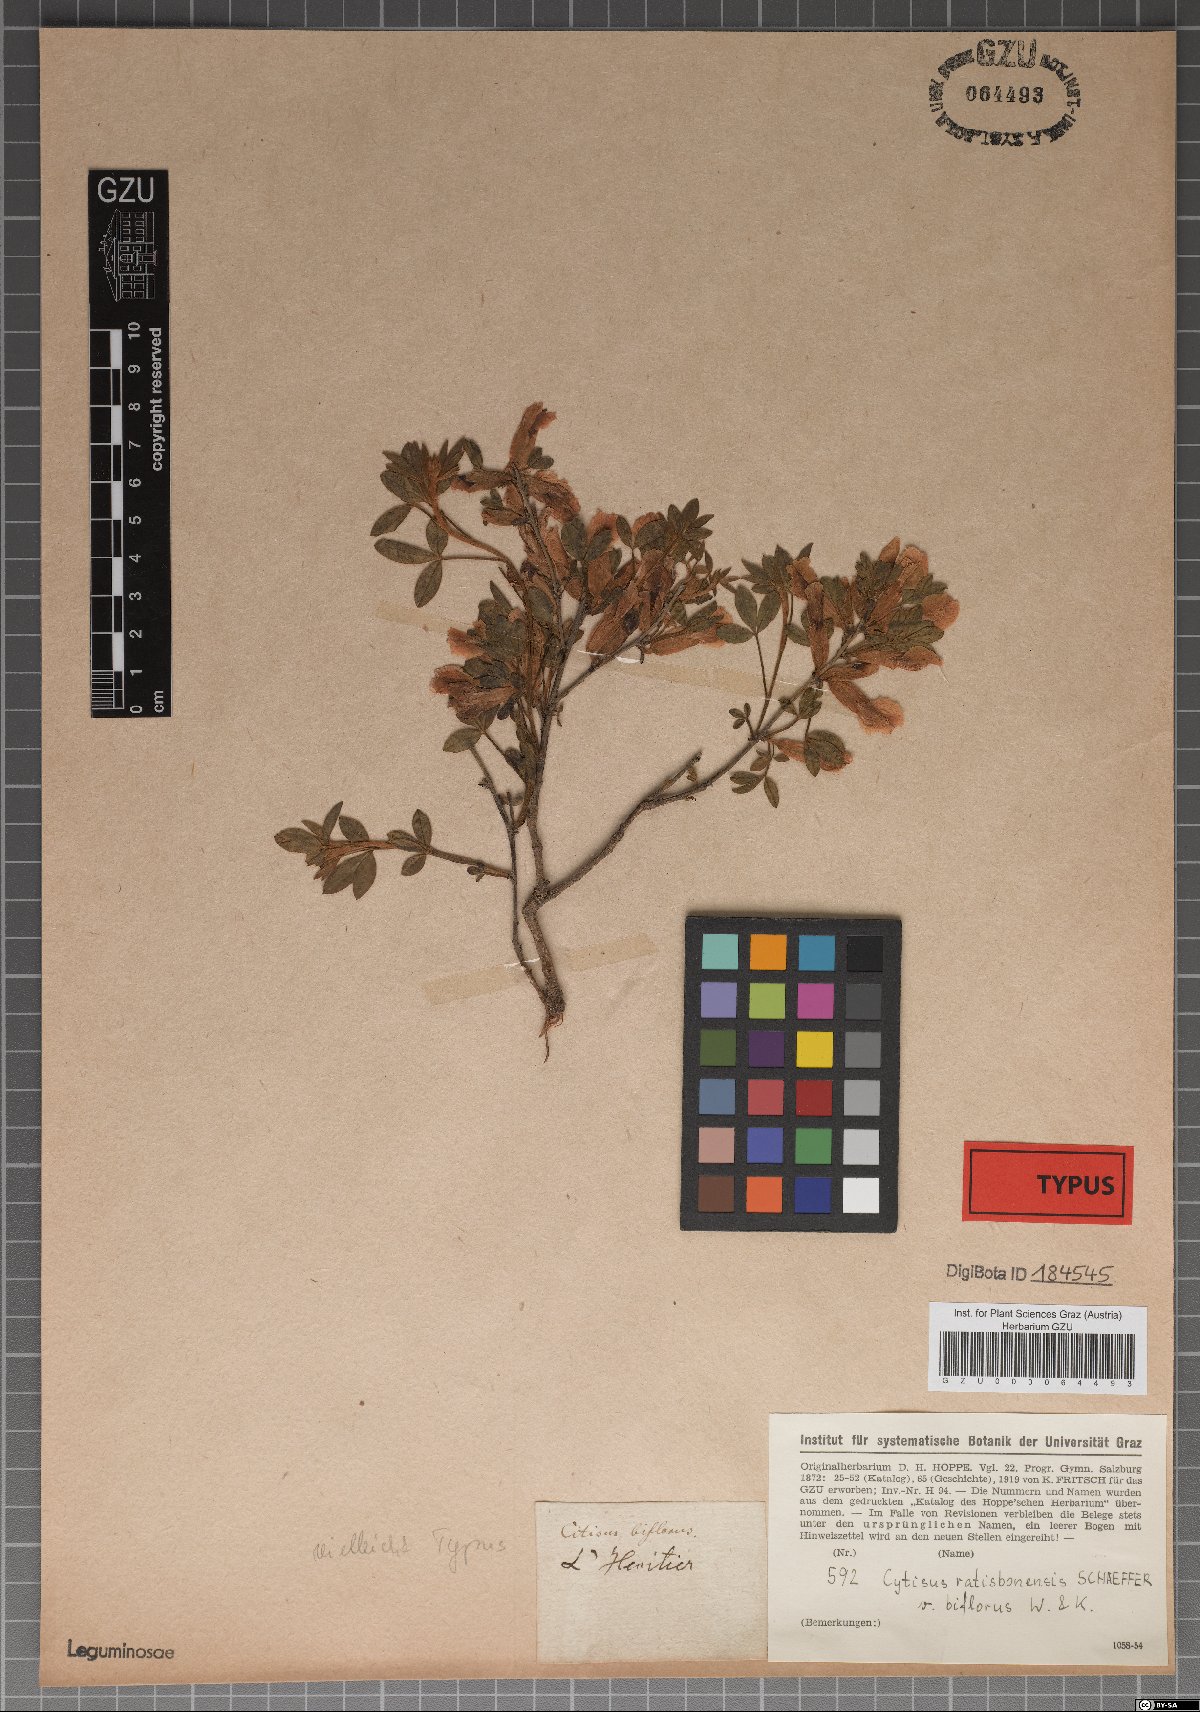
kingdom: Plantae
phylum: Tracheophyta
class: Magnoliopsida
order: Fabales
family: Fabaceae
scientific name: Fabaceae
